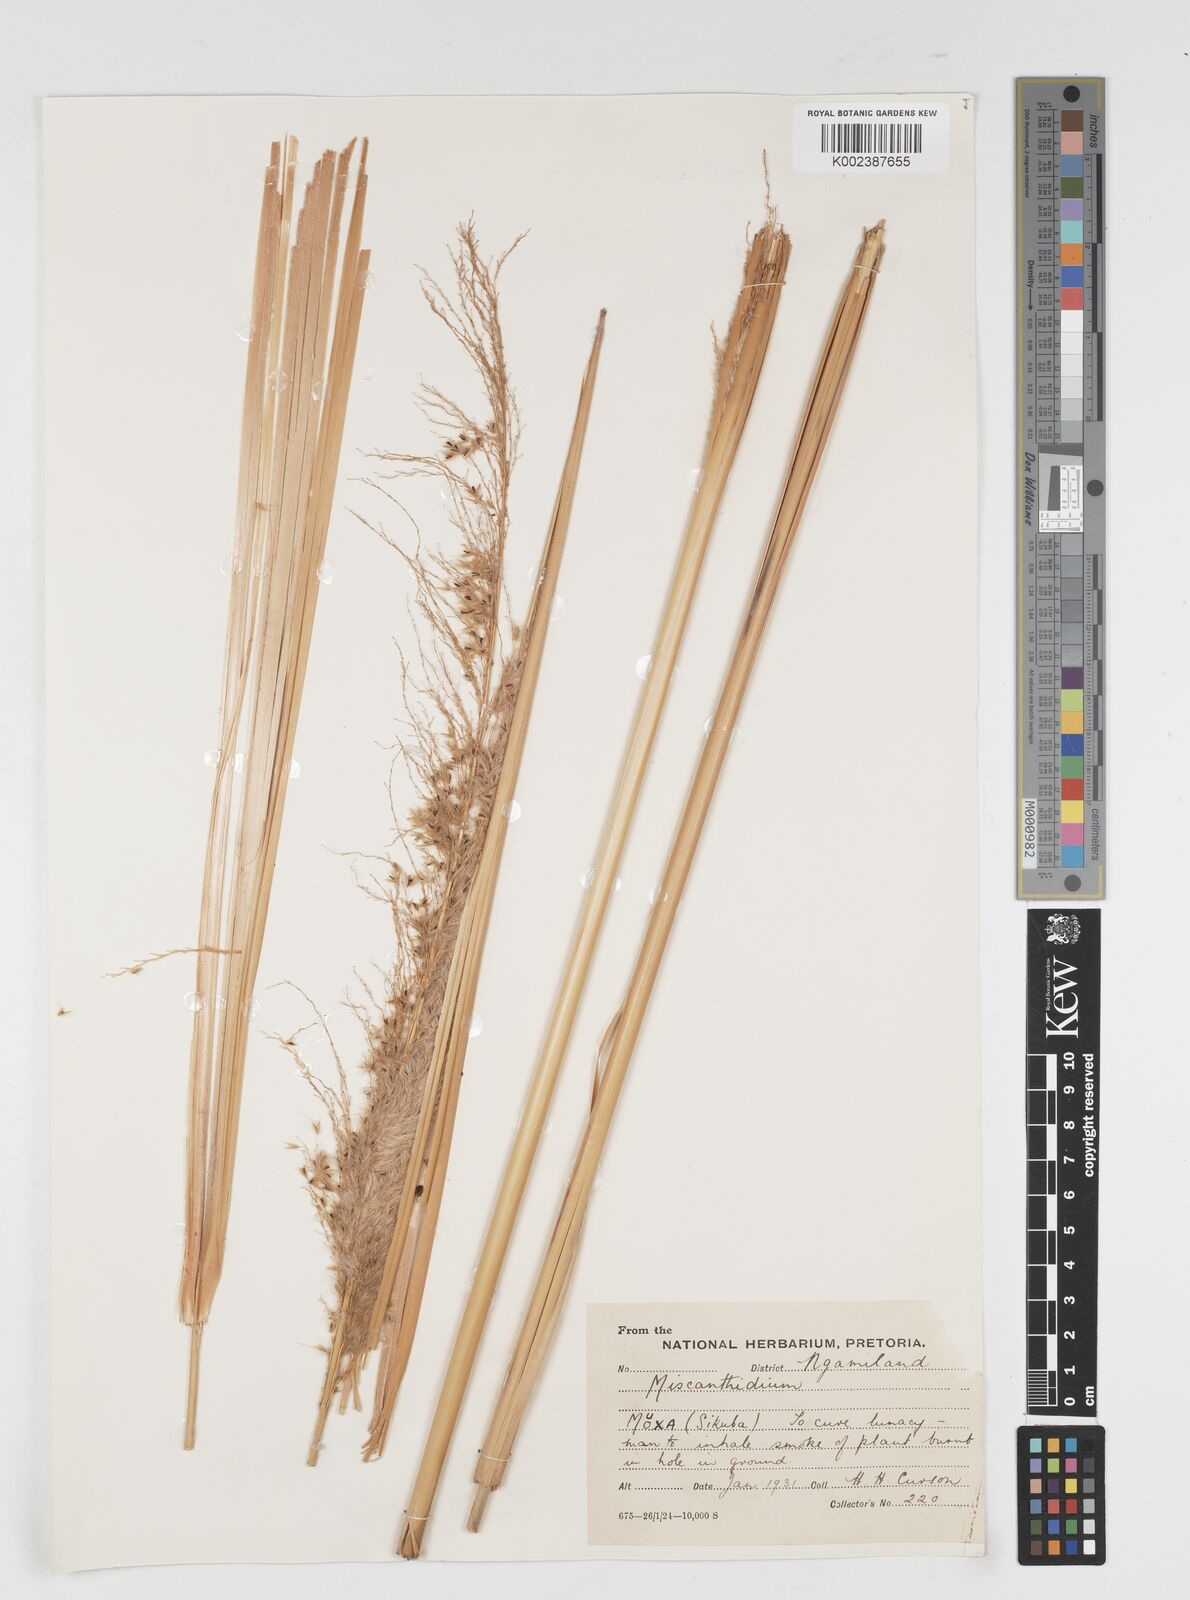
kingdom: Plantae
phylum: Tracheophyta
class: Liliopsida
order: Poales
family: Poaceae
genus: Miscanthidium
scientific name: Miscanthidium junceum
